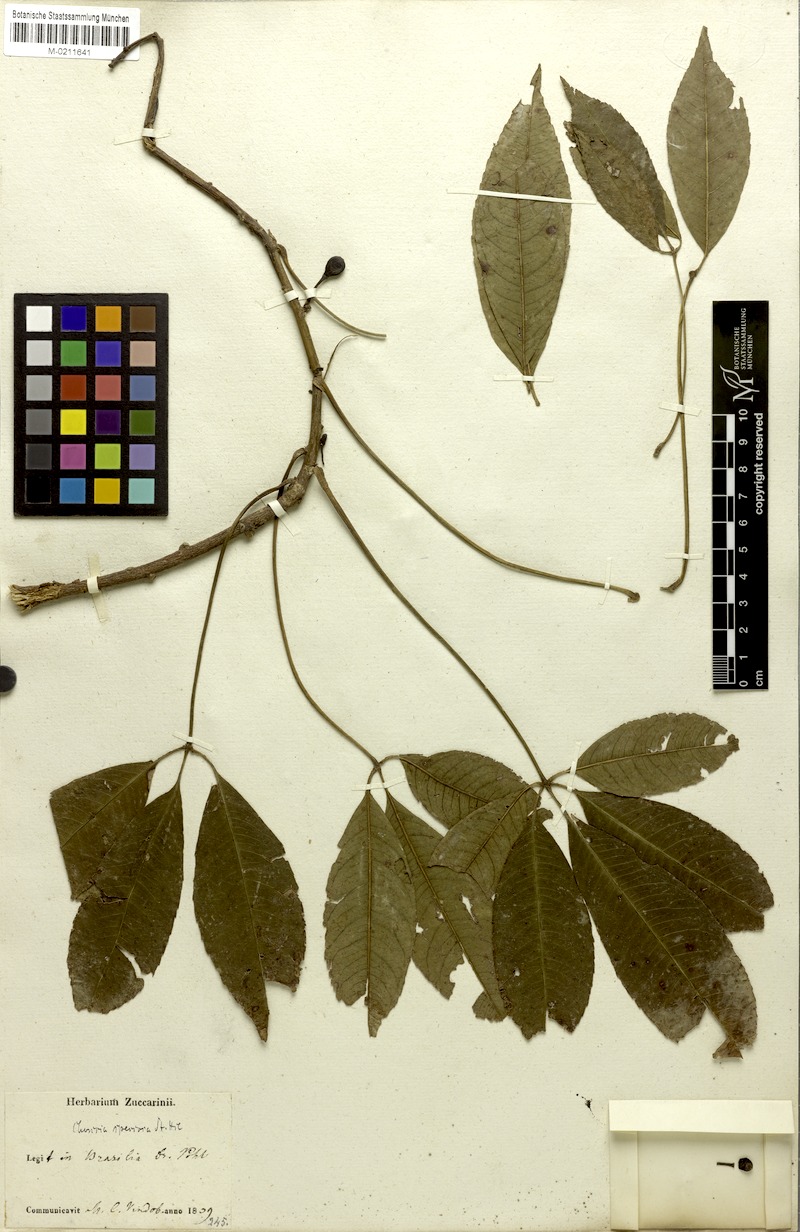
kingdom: Plantae
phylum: Tracheophyta
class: Magnoliopsida
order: Malvales
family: Malvaceae
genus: Ceiba
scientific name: Ceiba speciosa
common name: Silk-floss tree
